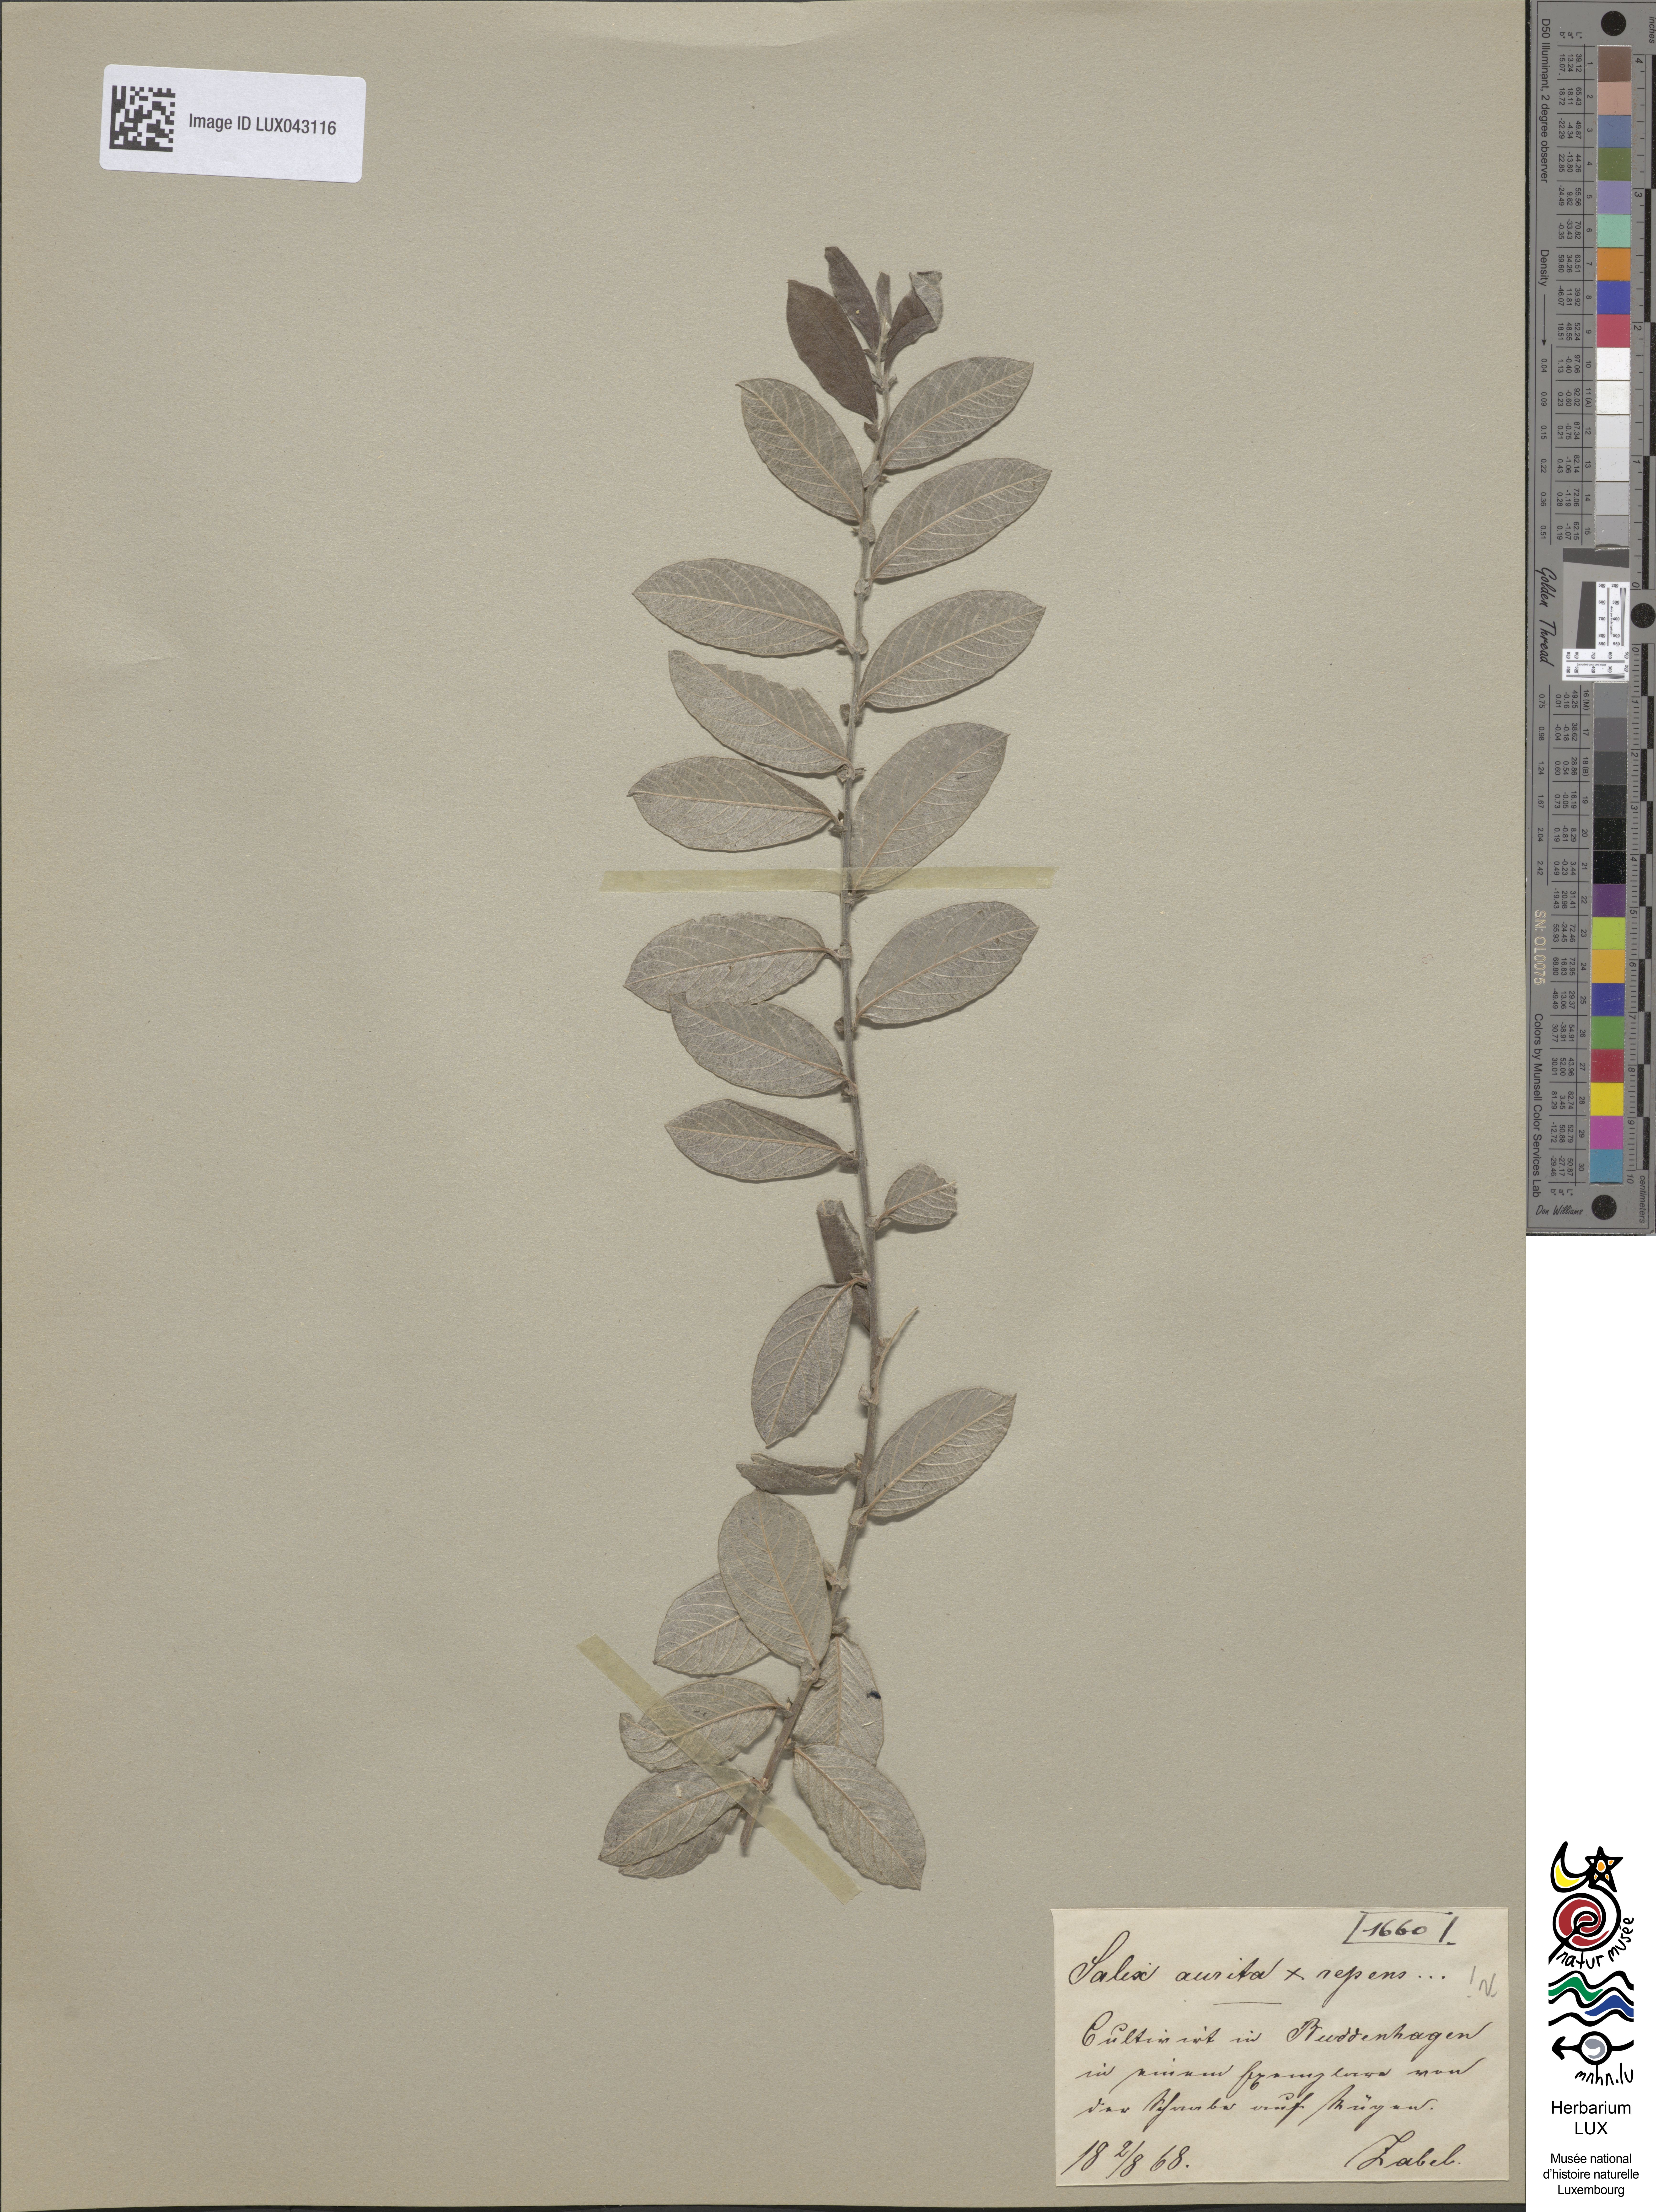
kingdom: Plantae
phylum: Tracheophyta
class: Magnoliopsida
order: Malpighiales
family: Salicaceae
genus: Salix
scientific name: Salix
